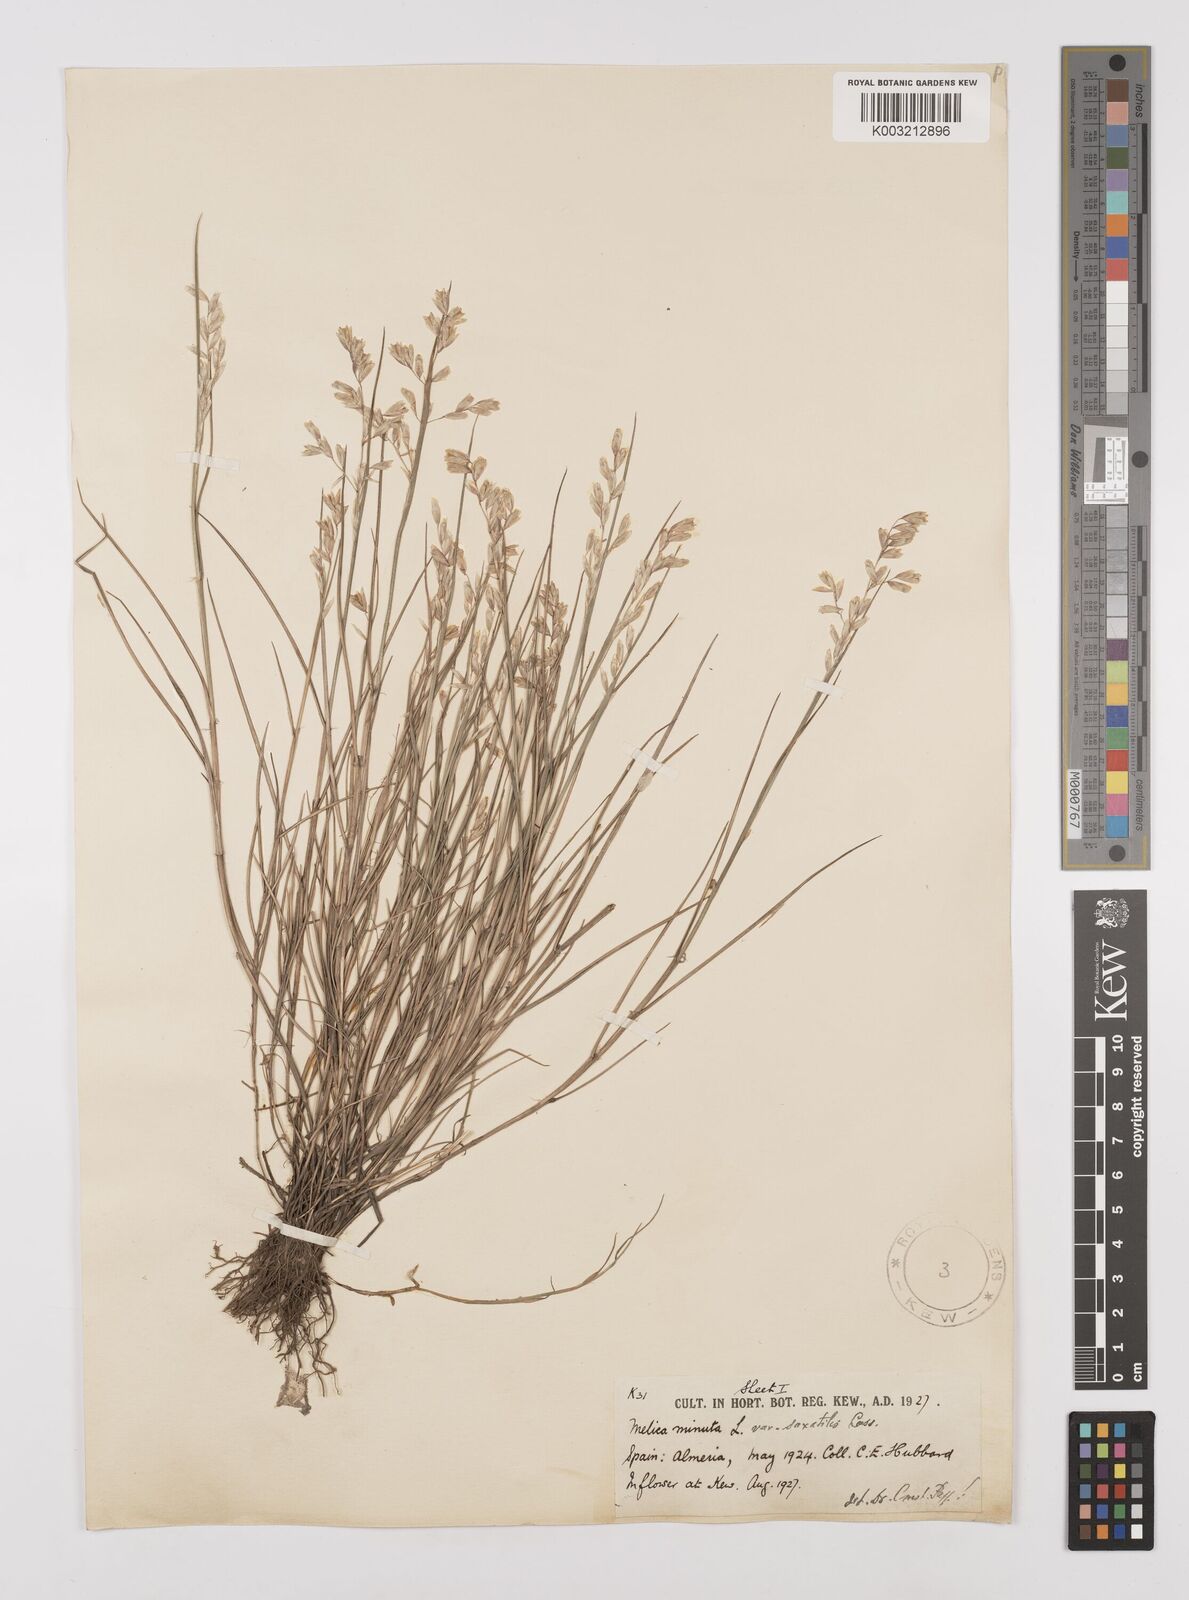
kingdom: Plantae
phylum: Tracheophyta
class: Liliopsida
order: Poales
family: Poaceae
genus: Melica
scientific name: Melica minuta
